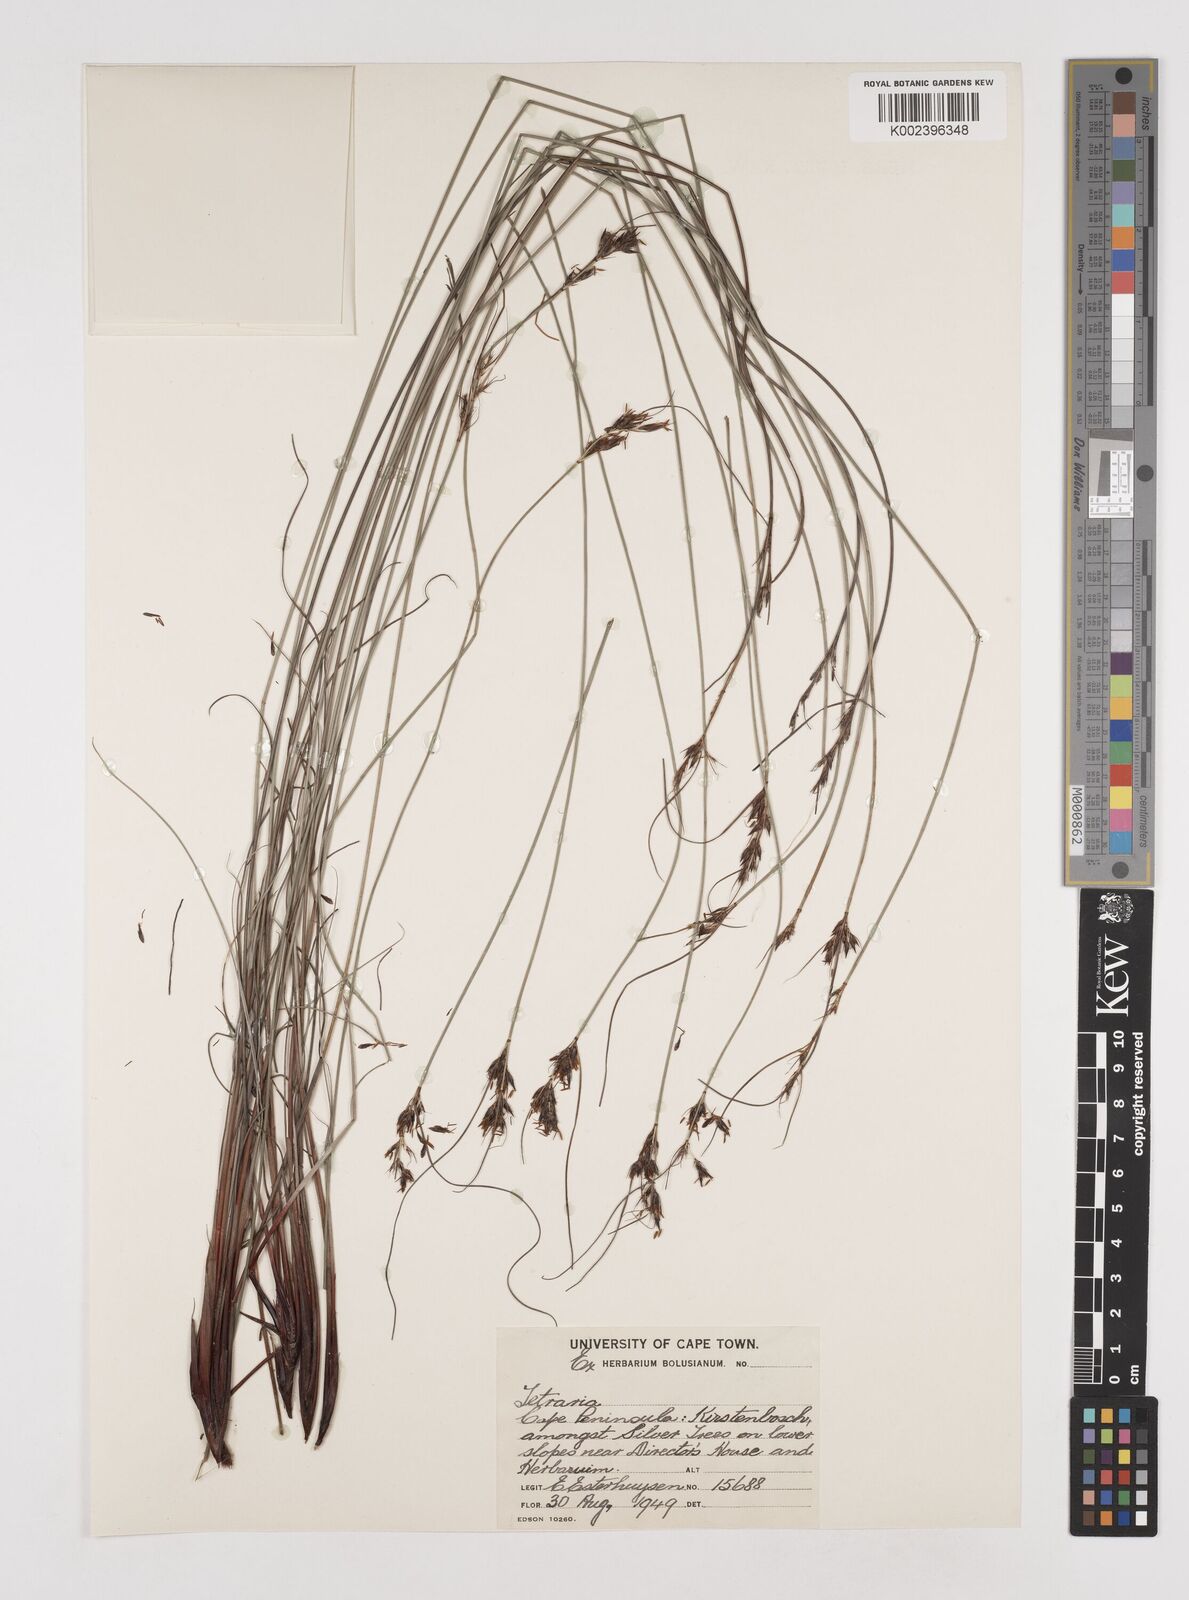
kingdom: Plantae
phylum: Tracheophyta
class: Liliopsida
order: Poales
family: Cyperaceae
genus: Schoenus
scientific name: Schoenus cuspidatus
